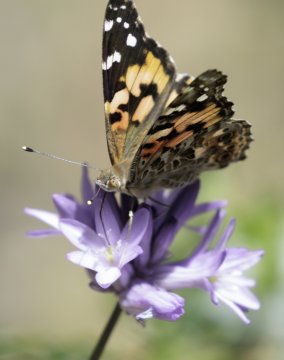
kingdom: Animalia
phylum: Arthropoda
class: Insecta
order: Lepidoptera
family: Nymphalidae
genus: Vanessa
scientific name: Vanessa cardui
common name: Painted Lady
